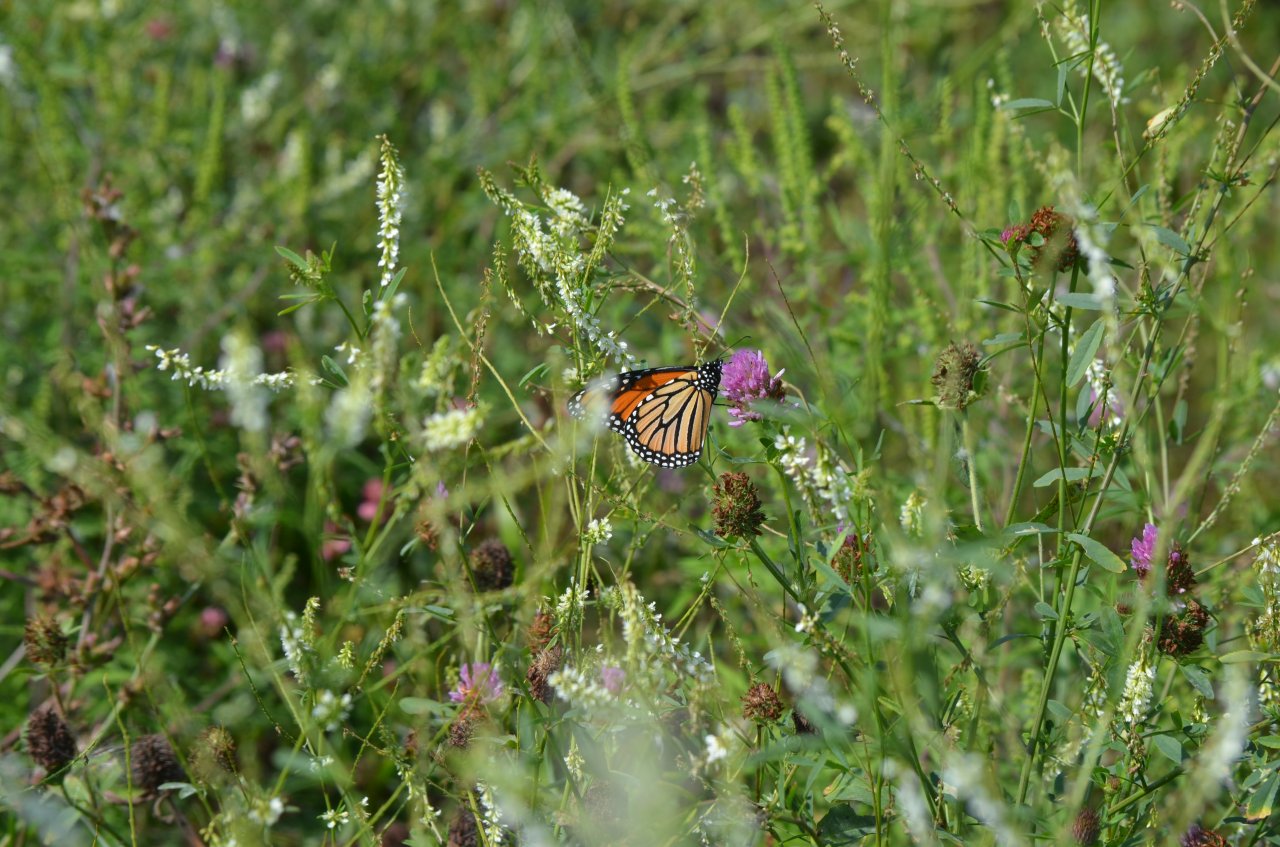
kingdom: Animalia
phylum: Arthropoda
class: Insecta
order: Lepidoptera
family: Nymphalidae
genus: Danaus
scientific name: Danaus plexippus
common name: Monarch
